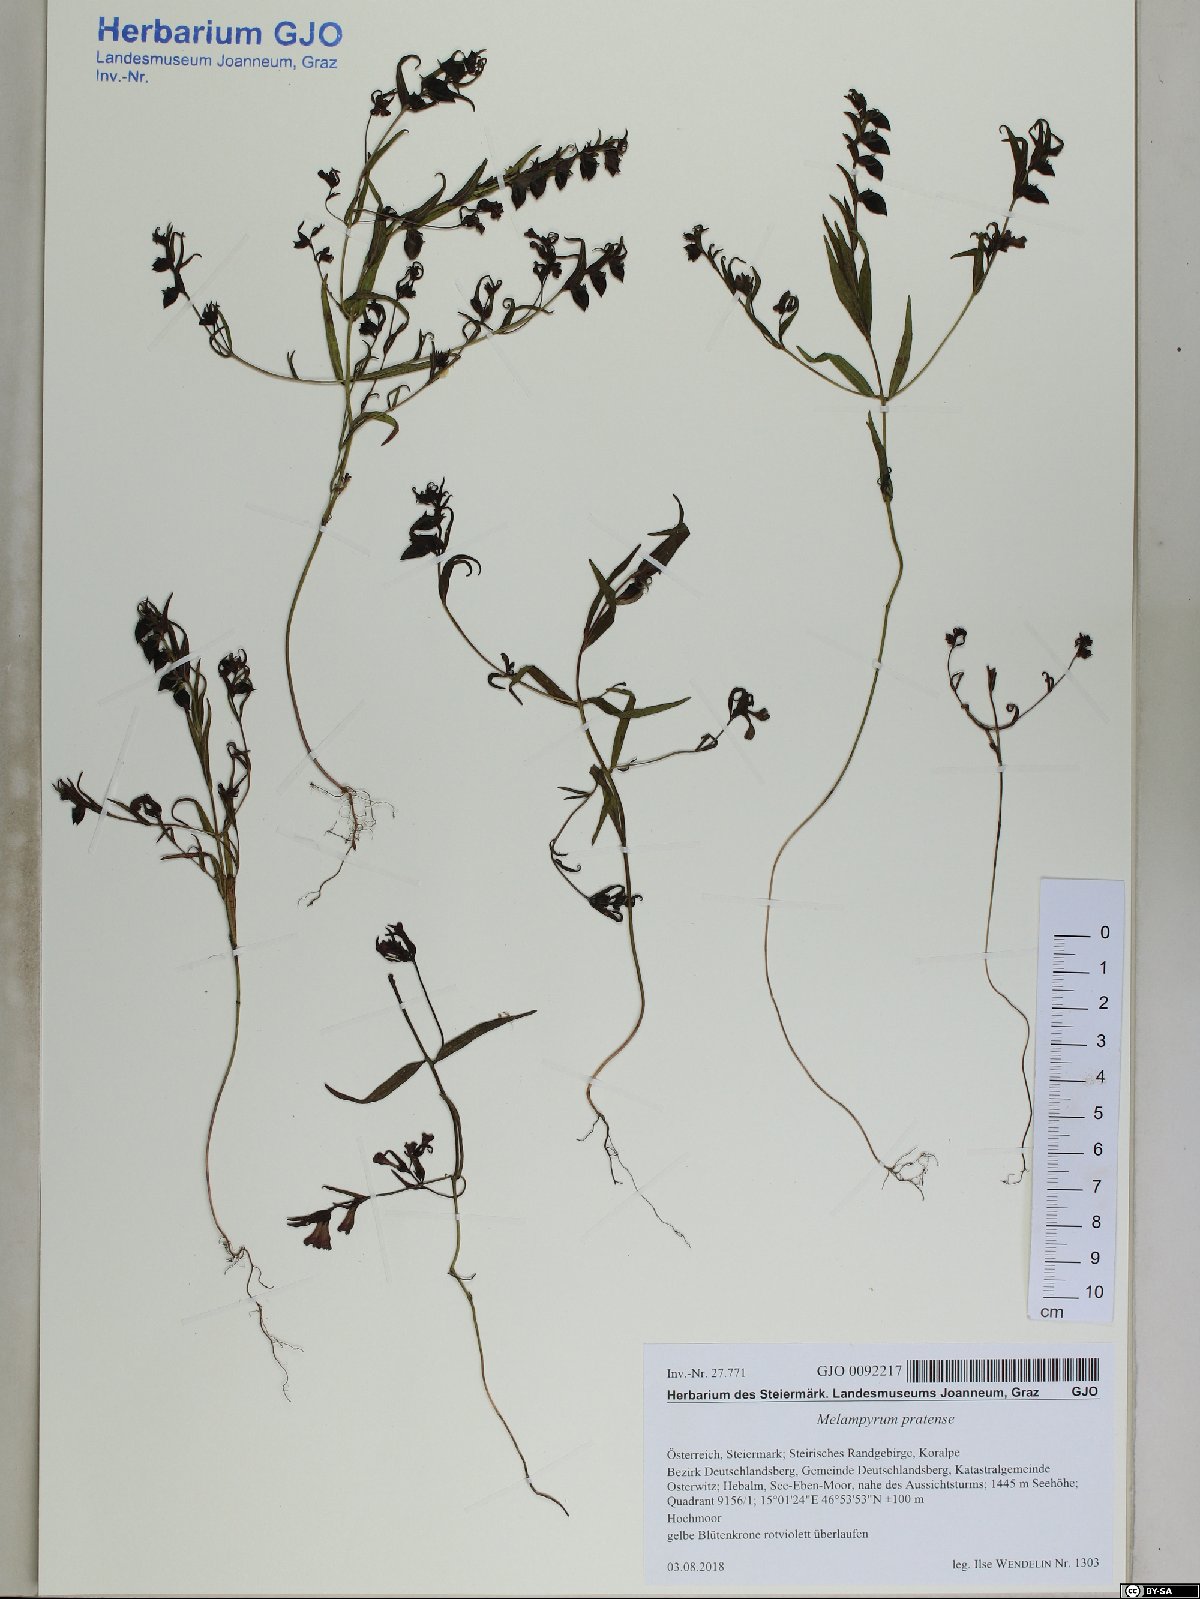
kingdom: Plantae
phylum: Tracheophyta
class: Magnoliopsida
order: Lamiales
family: Orobanchaceae
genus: Melampyrum
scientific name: Melampyrum pratense
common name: Common cow-wheat
